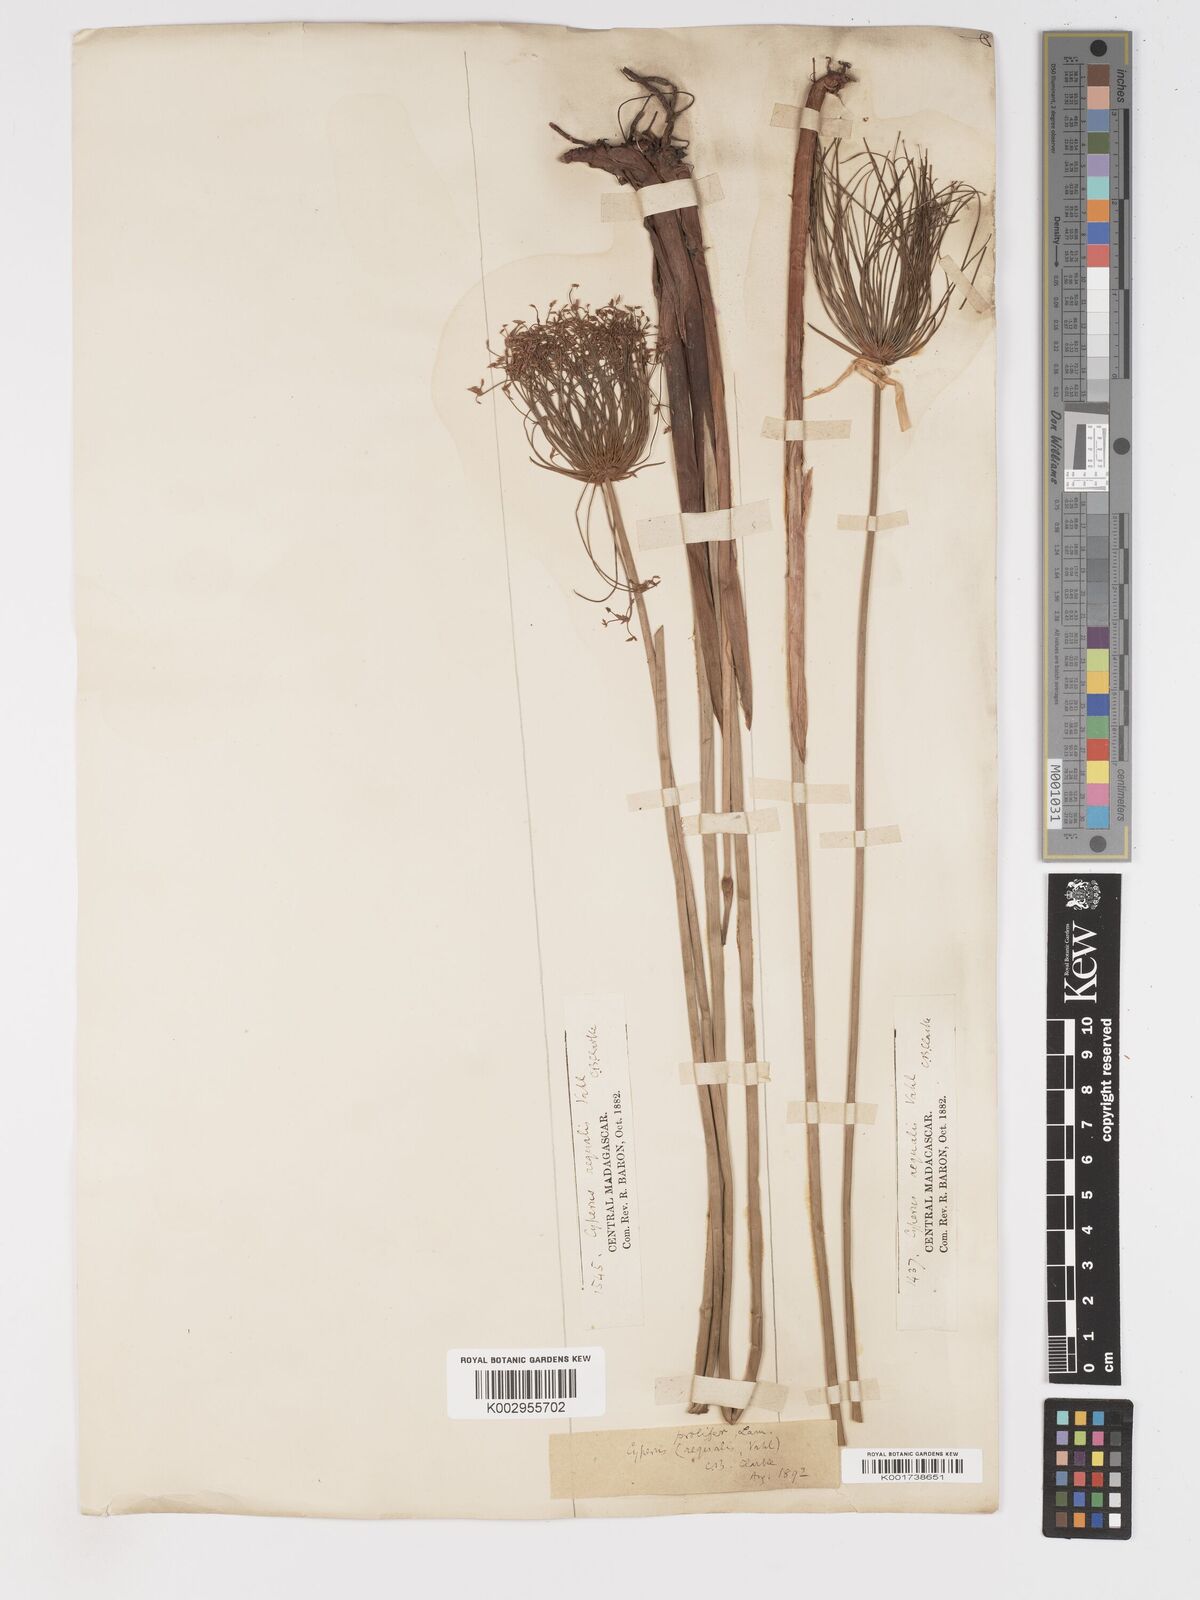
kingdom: Plantae
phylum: Tracheophyta
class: Liliopsida
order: Poales
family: Cyperaceae
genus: Cyperus
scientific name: Cyperus prolifer
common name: Miniature flatsedge
